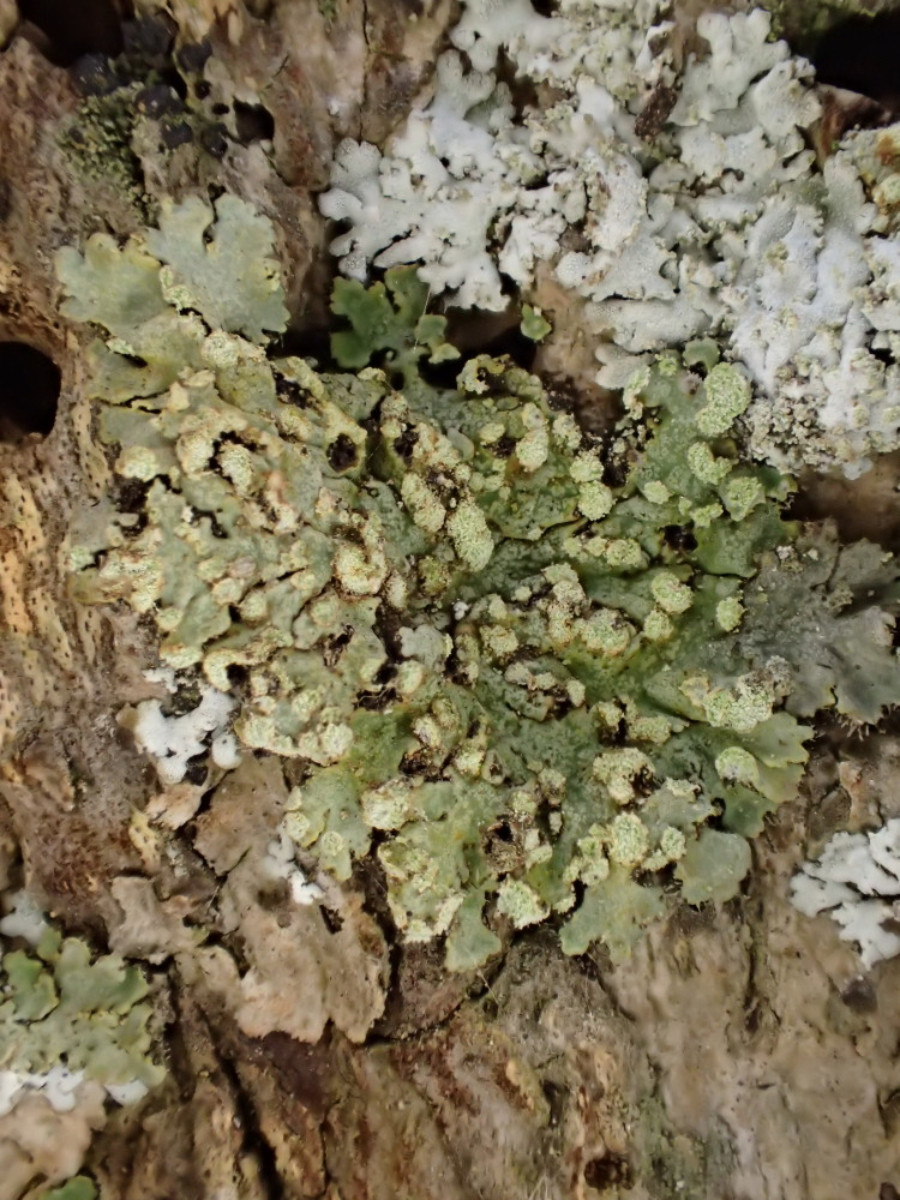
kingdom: Fungi
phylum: Ascomycota
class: Lecanoromycetes
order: Caliciales
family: Physciaceae
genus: Phaeophyscia
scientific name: Phaeophyscia orbicularis
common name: grågrøn rosetlav
